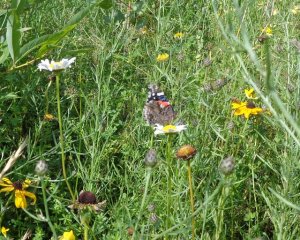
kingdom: Animalia
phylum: Arthropoda
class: Insecta
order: Lepidoptera
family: Nymphalidae
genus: Vanessa
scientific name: Vanessa atalanta
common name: Red Admiral
